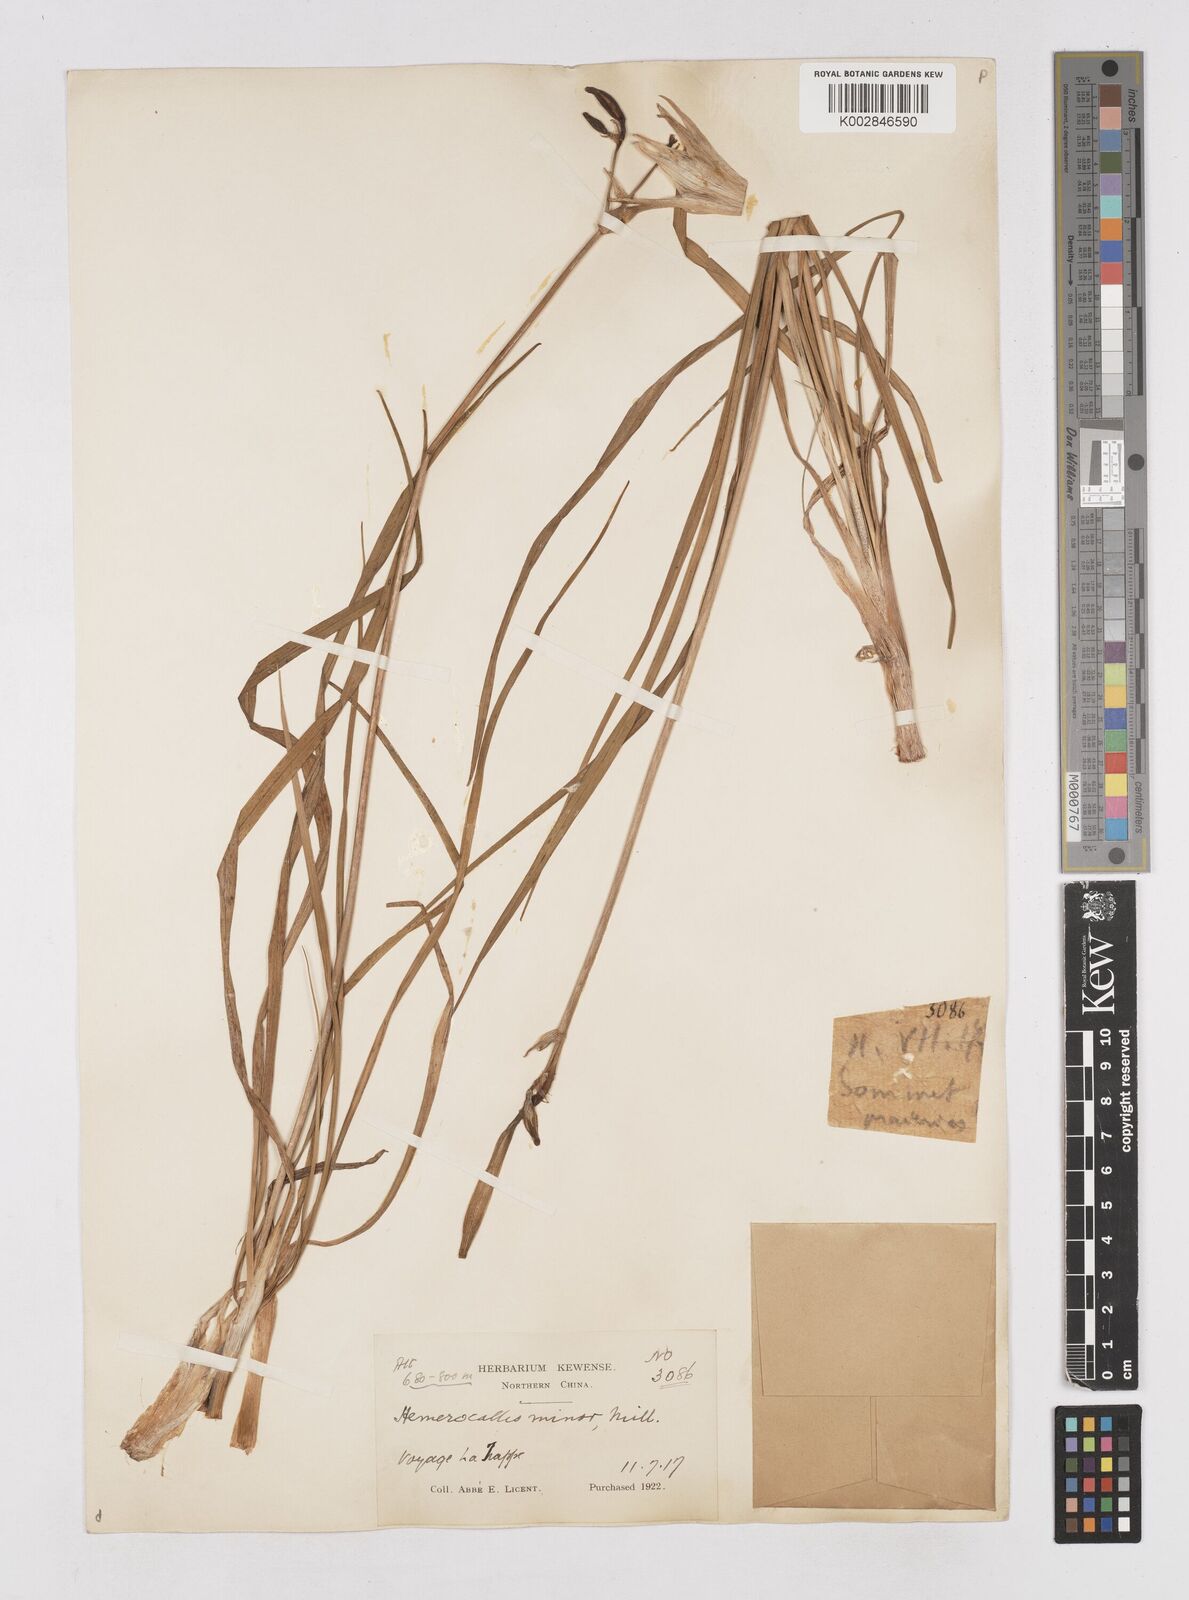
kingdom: Plantae
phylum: Tracheophyta
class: Liliopsida
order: Asparagales
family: Asphodelaceae
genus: Hemerocallis
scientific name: Hemerocallis minor
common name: Small daylily
